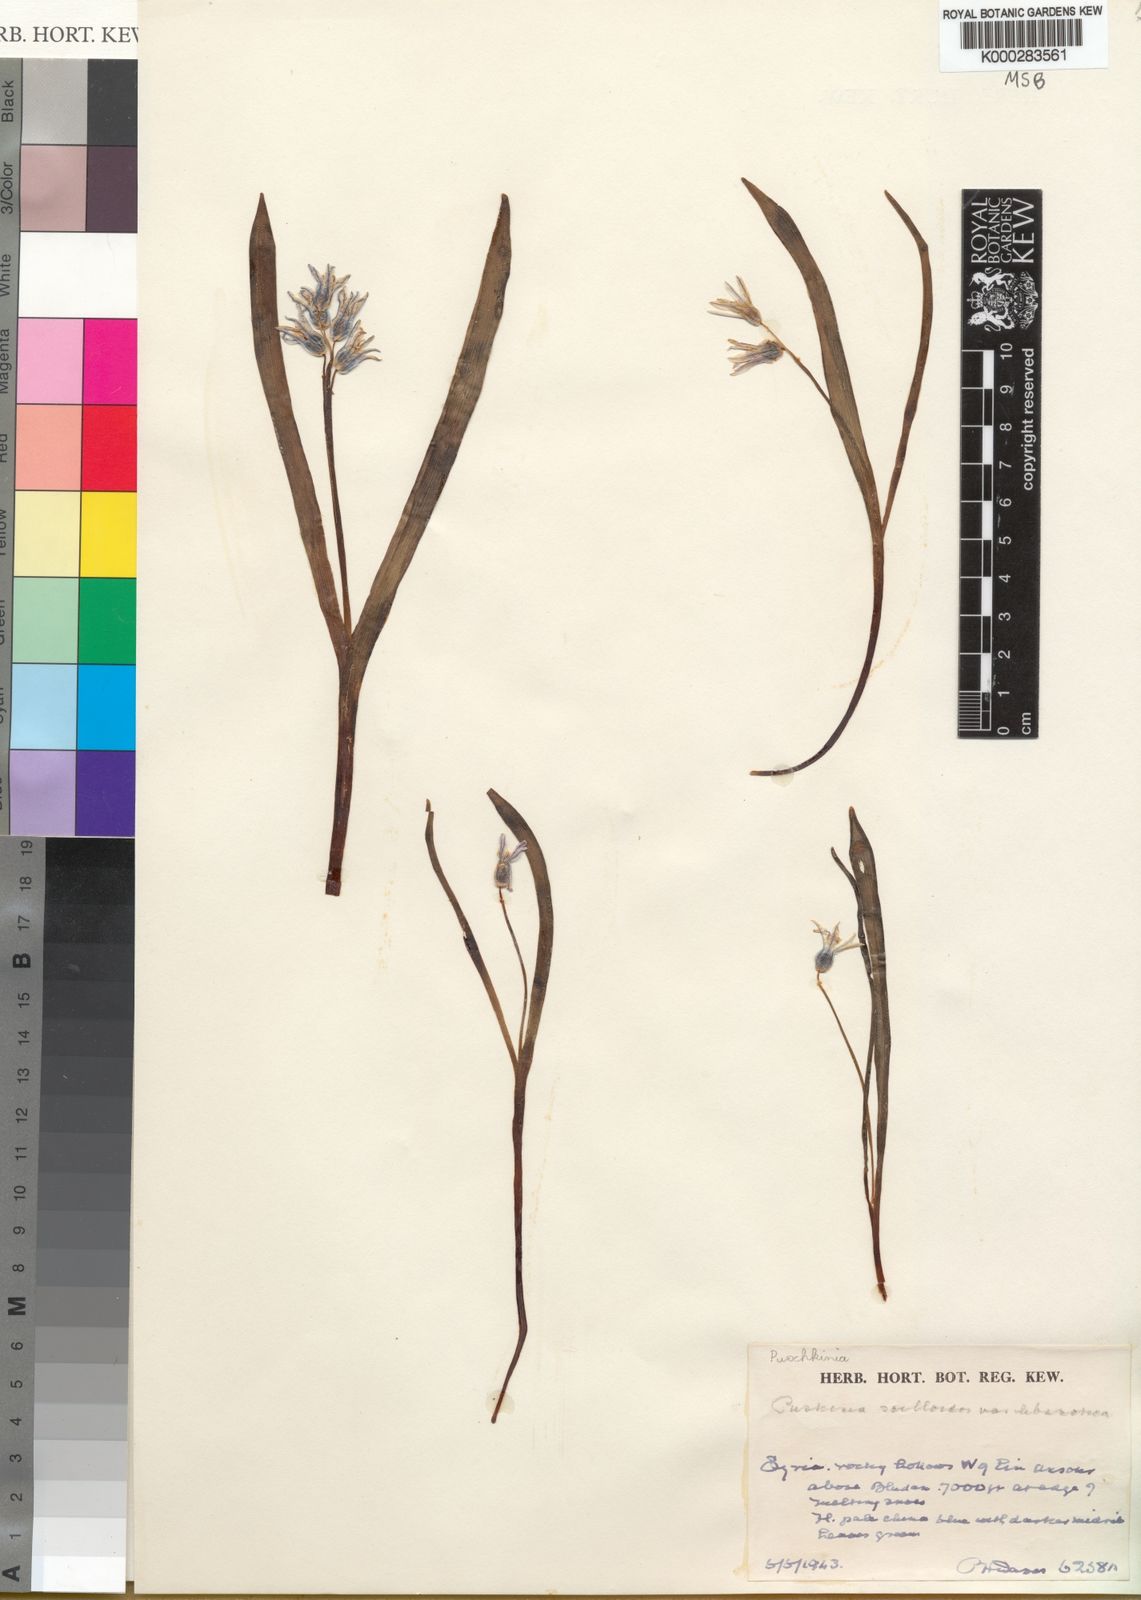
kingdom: Plantae
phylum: Tracheophyta
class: Liliopsida
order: Asparagales
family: Asparagaceae
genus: Puschkinia
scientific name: Puschkinia scilloides
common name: Striped squill
